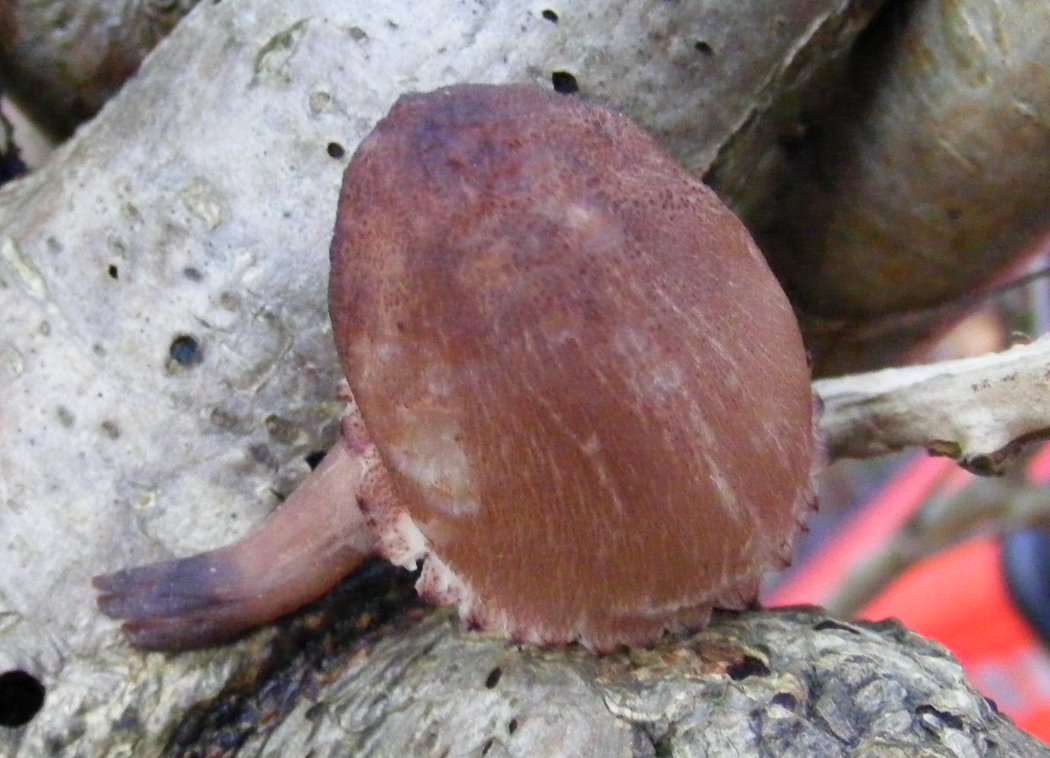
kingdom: Fungi
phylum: Basidiomycota
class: Agaricomycetes
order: Agaricales
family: Mycenaceae
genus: Mycena
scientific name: Mycena haematopus
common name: blødende huesvamp
